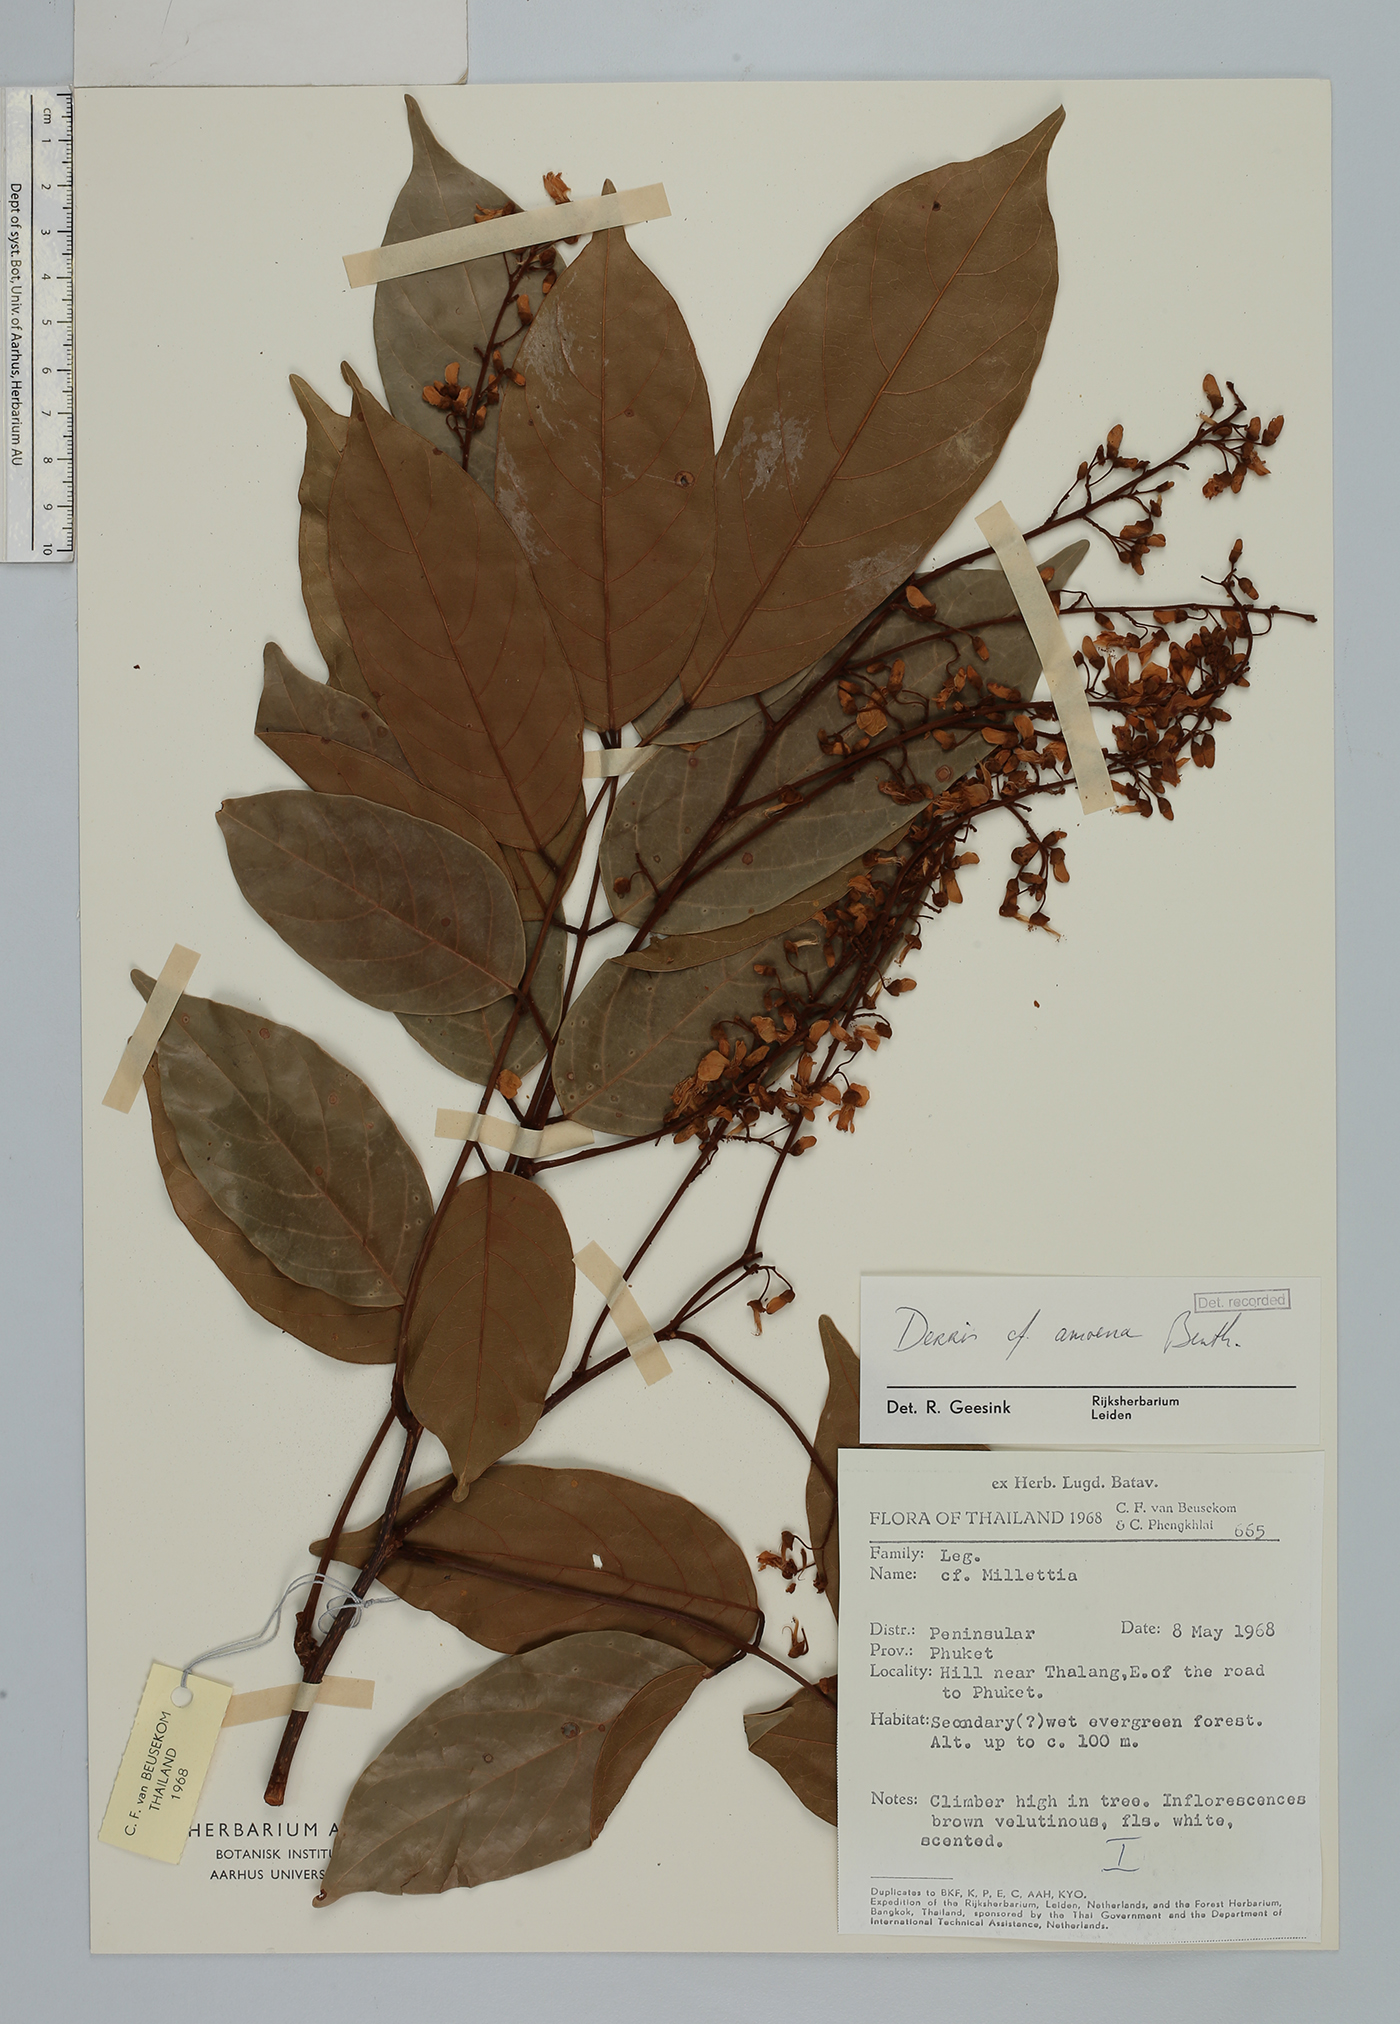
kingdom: Plantae
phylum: Tracheophyta
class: Magnoliopsida
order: Fabales
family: Fabaceae
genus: Derris
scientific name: Derris
